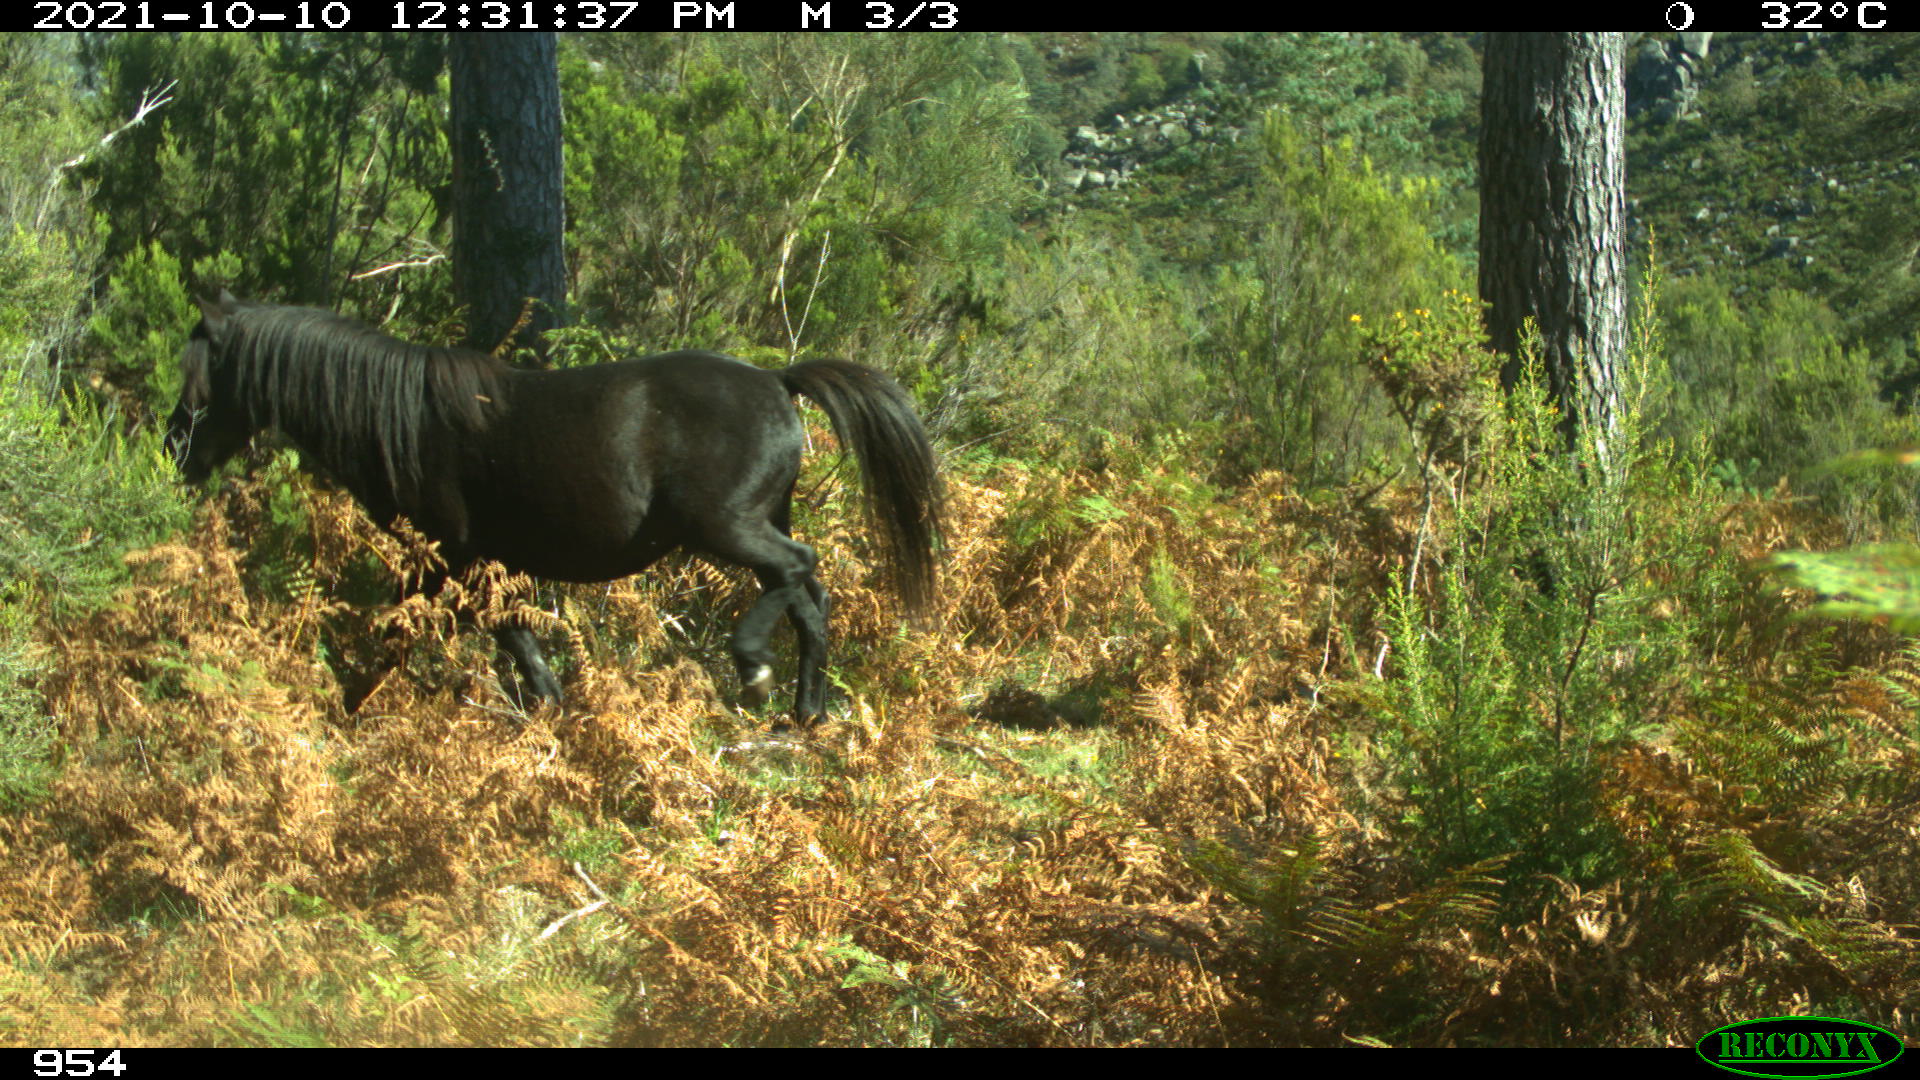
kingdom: Animalia
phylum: Chordata
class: Mammalia
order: Perissodactyla
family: Equidae
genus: Equus
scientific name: Equus caballus
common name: Horse
